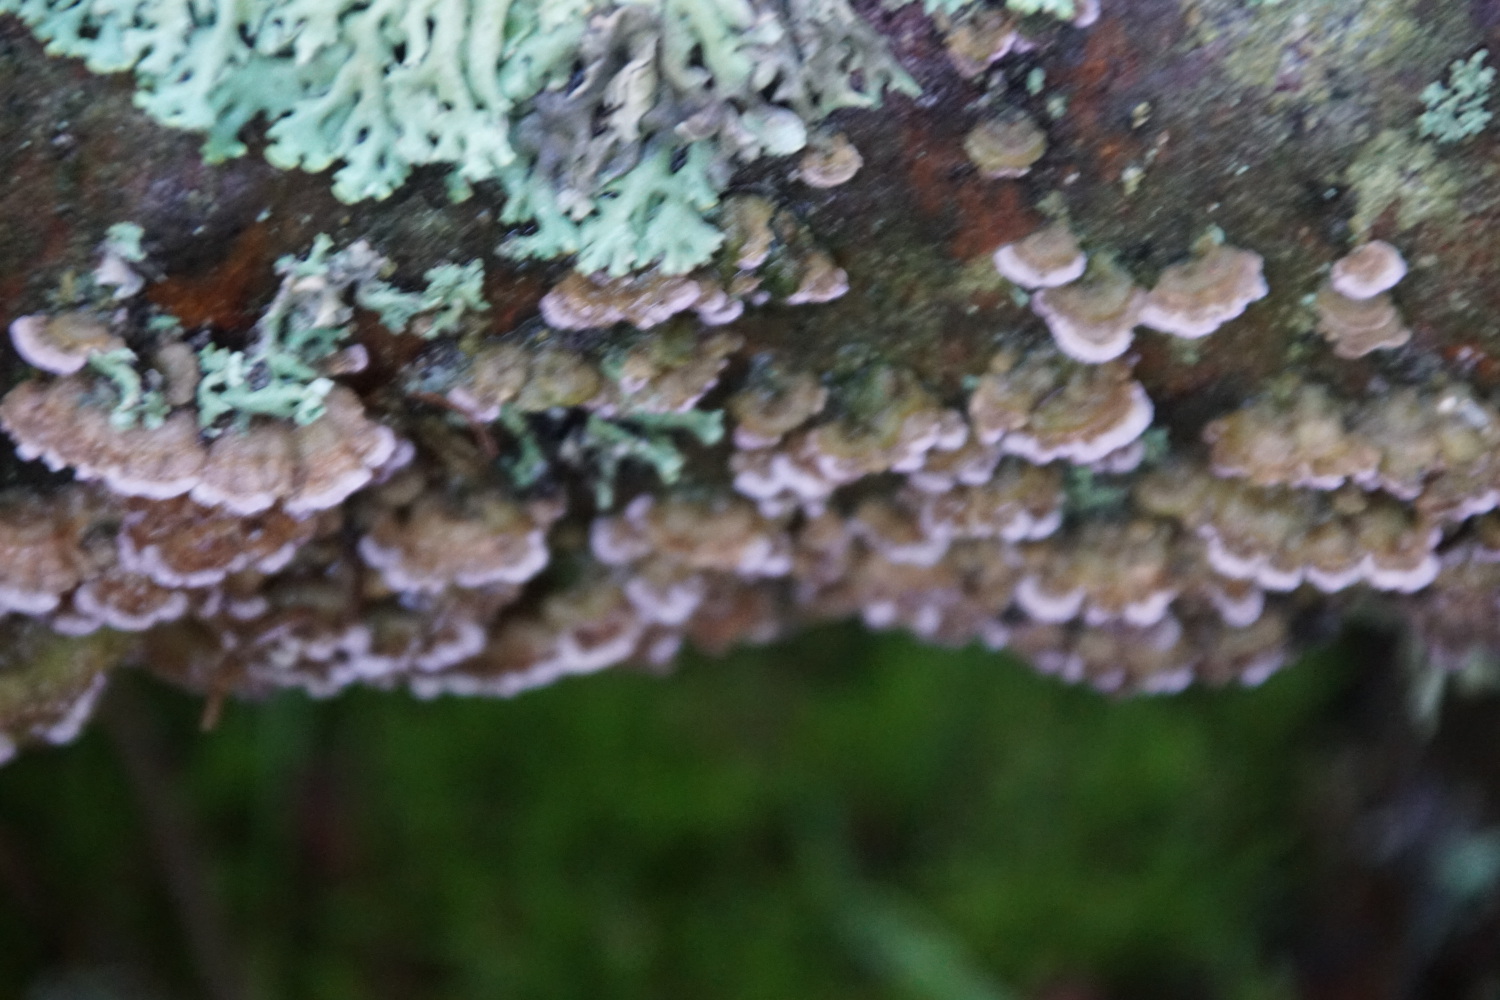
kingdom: Fungi
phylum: Basidiomycota
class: Agaricomycetes
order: Hymenochaetales
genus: Trichaptum
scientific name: Trichaptum abietinum
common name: almindelig violporesvamp
